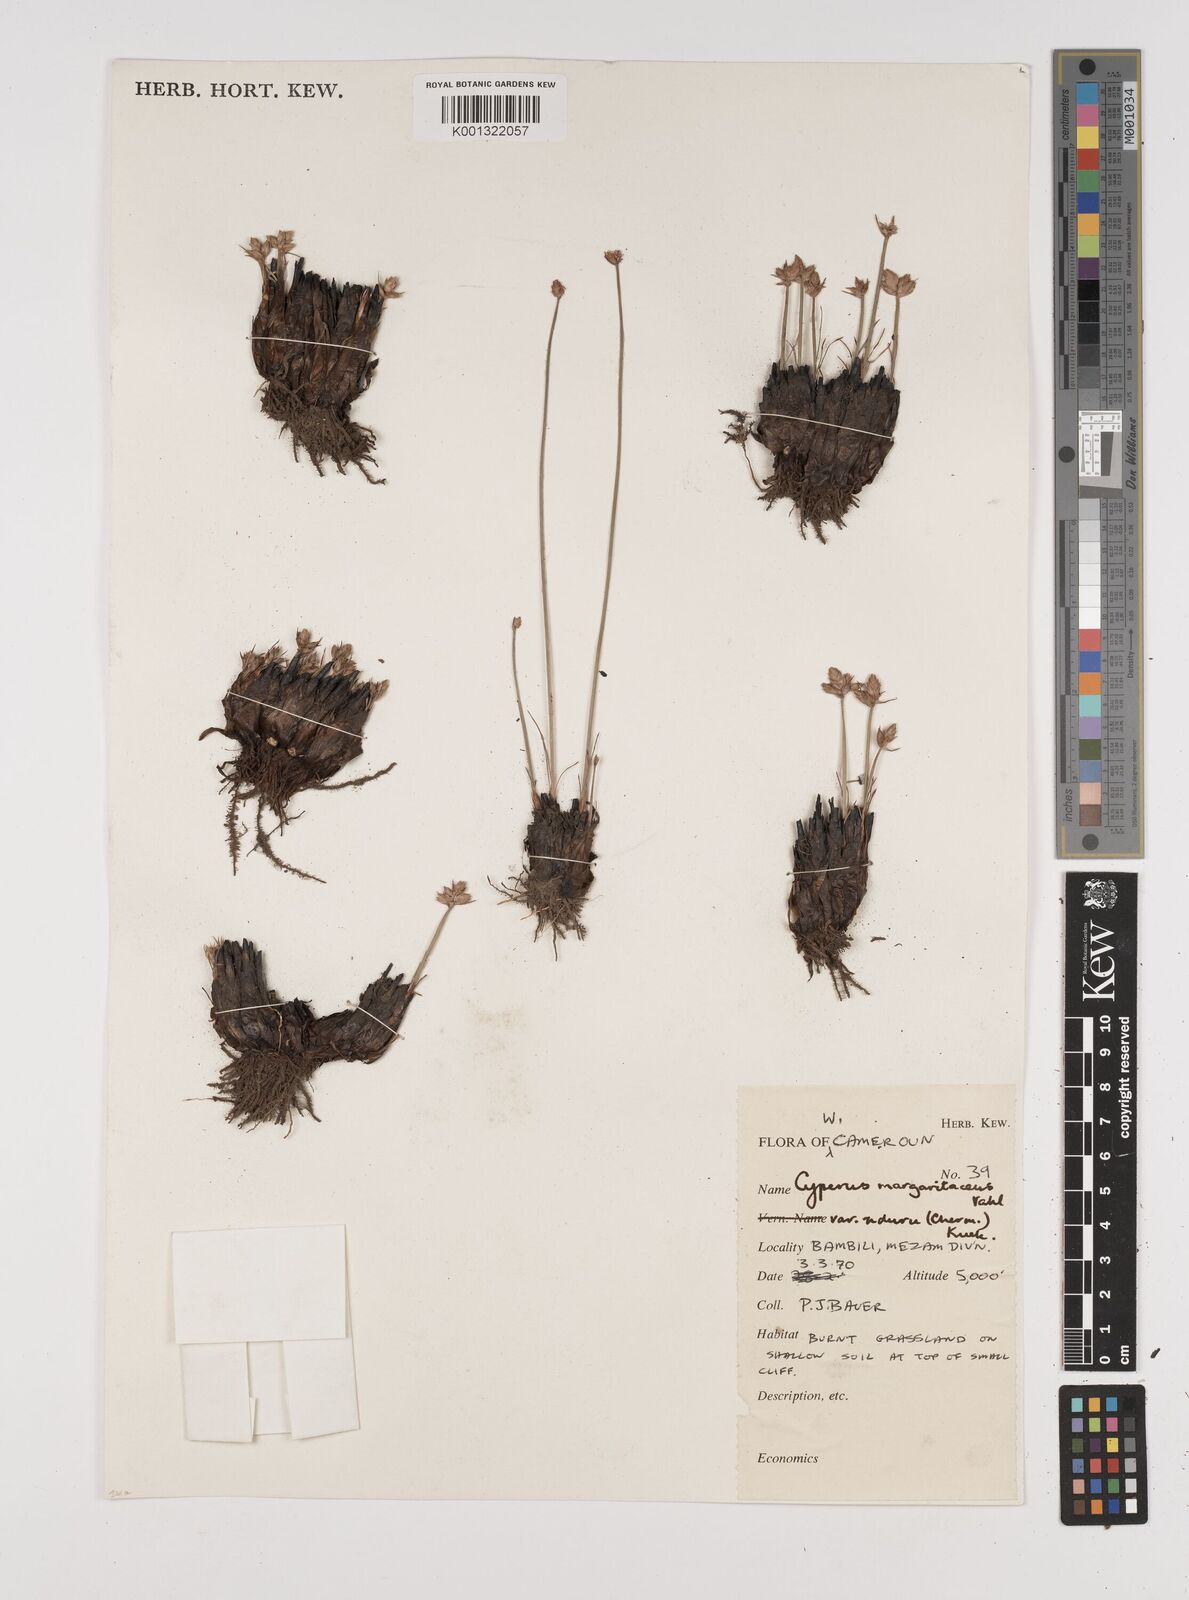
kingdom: Plantae
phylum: Tracheophyta
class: Liliopsida
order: Poales
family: Cyperaceae
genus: Cyperus
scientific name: Cyperus nduru
